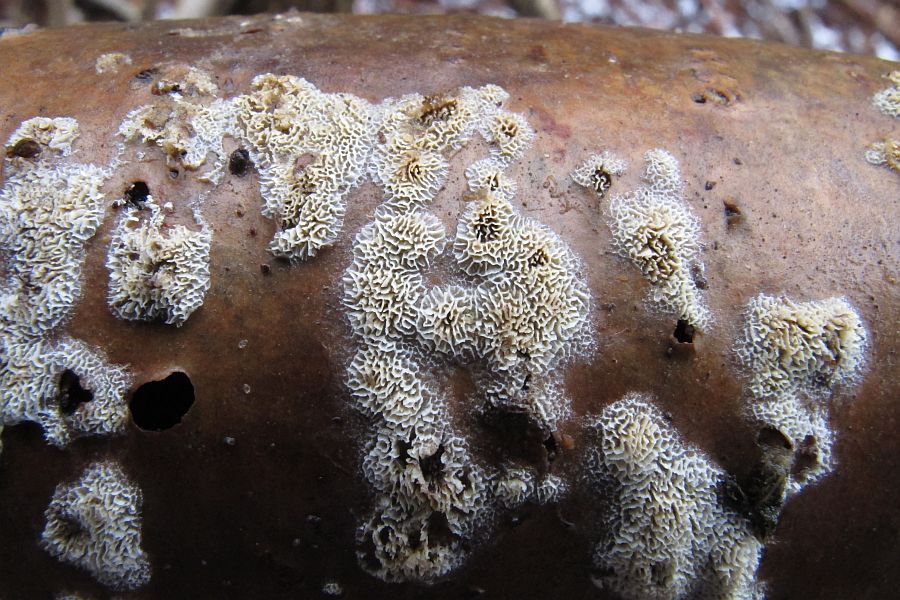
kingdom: Fungi
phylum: Basidiomycota
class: Agaricomycetes
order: Hymenochaetales
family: Schizoporaceae
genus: Schizopora
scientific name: Schizopora paradoxa
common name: hvid tandsvamp
